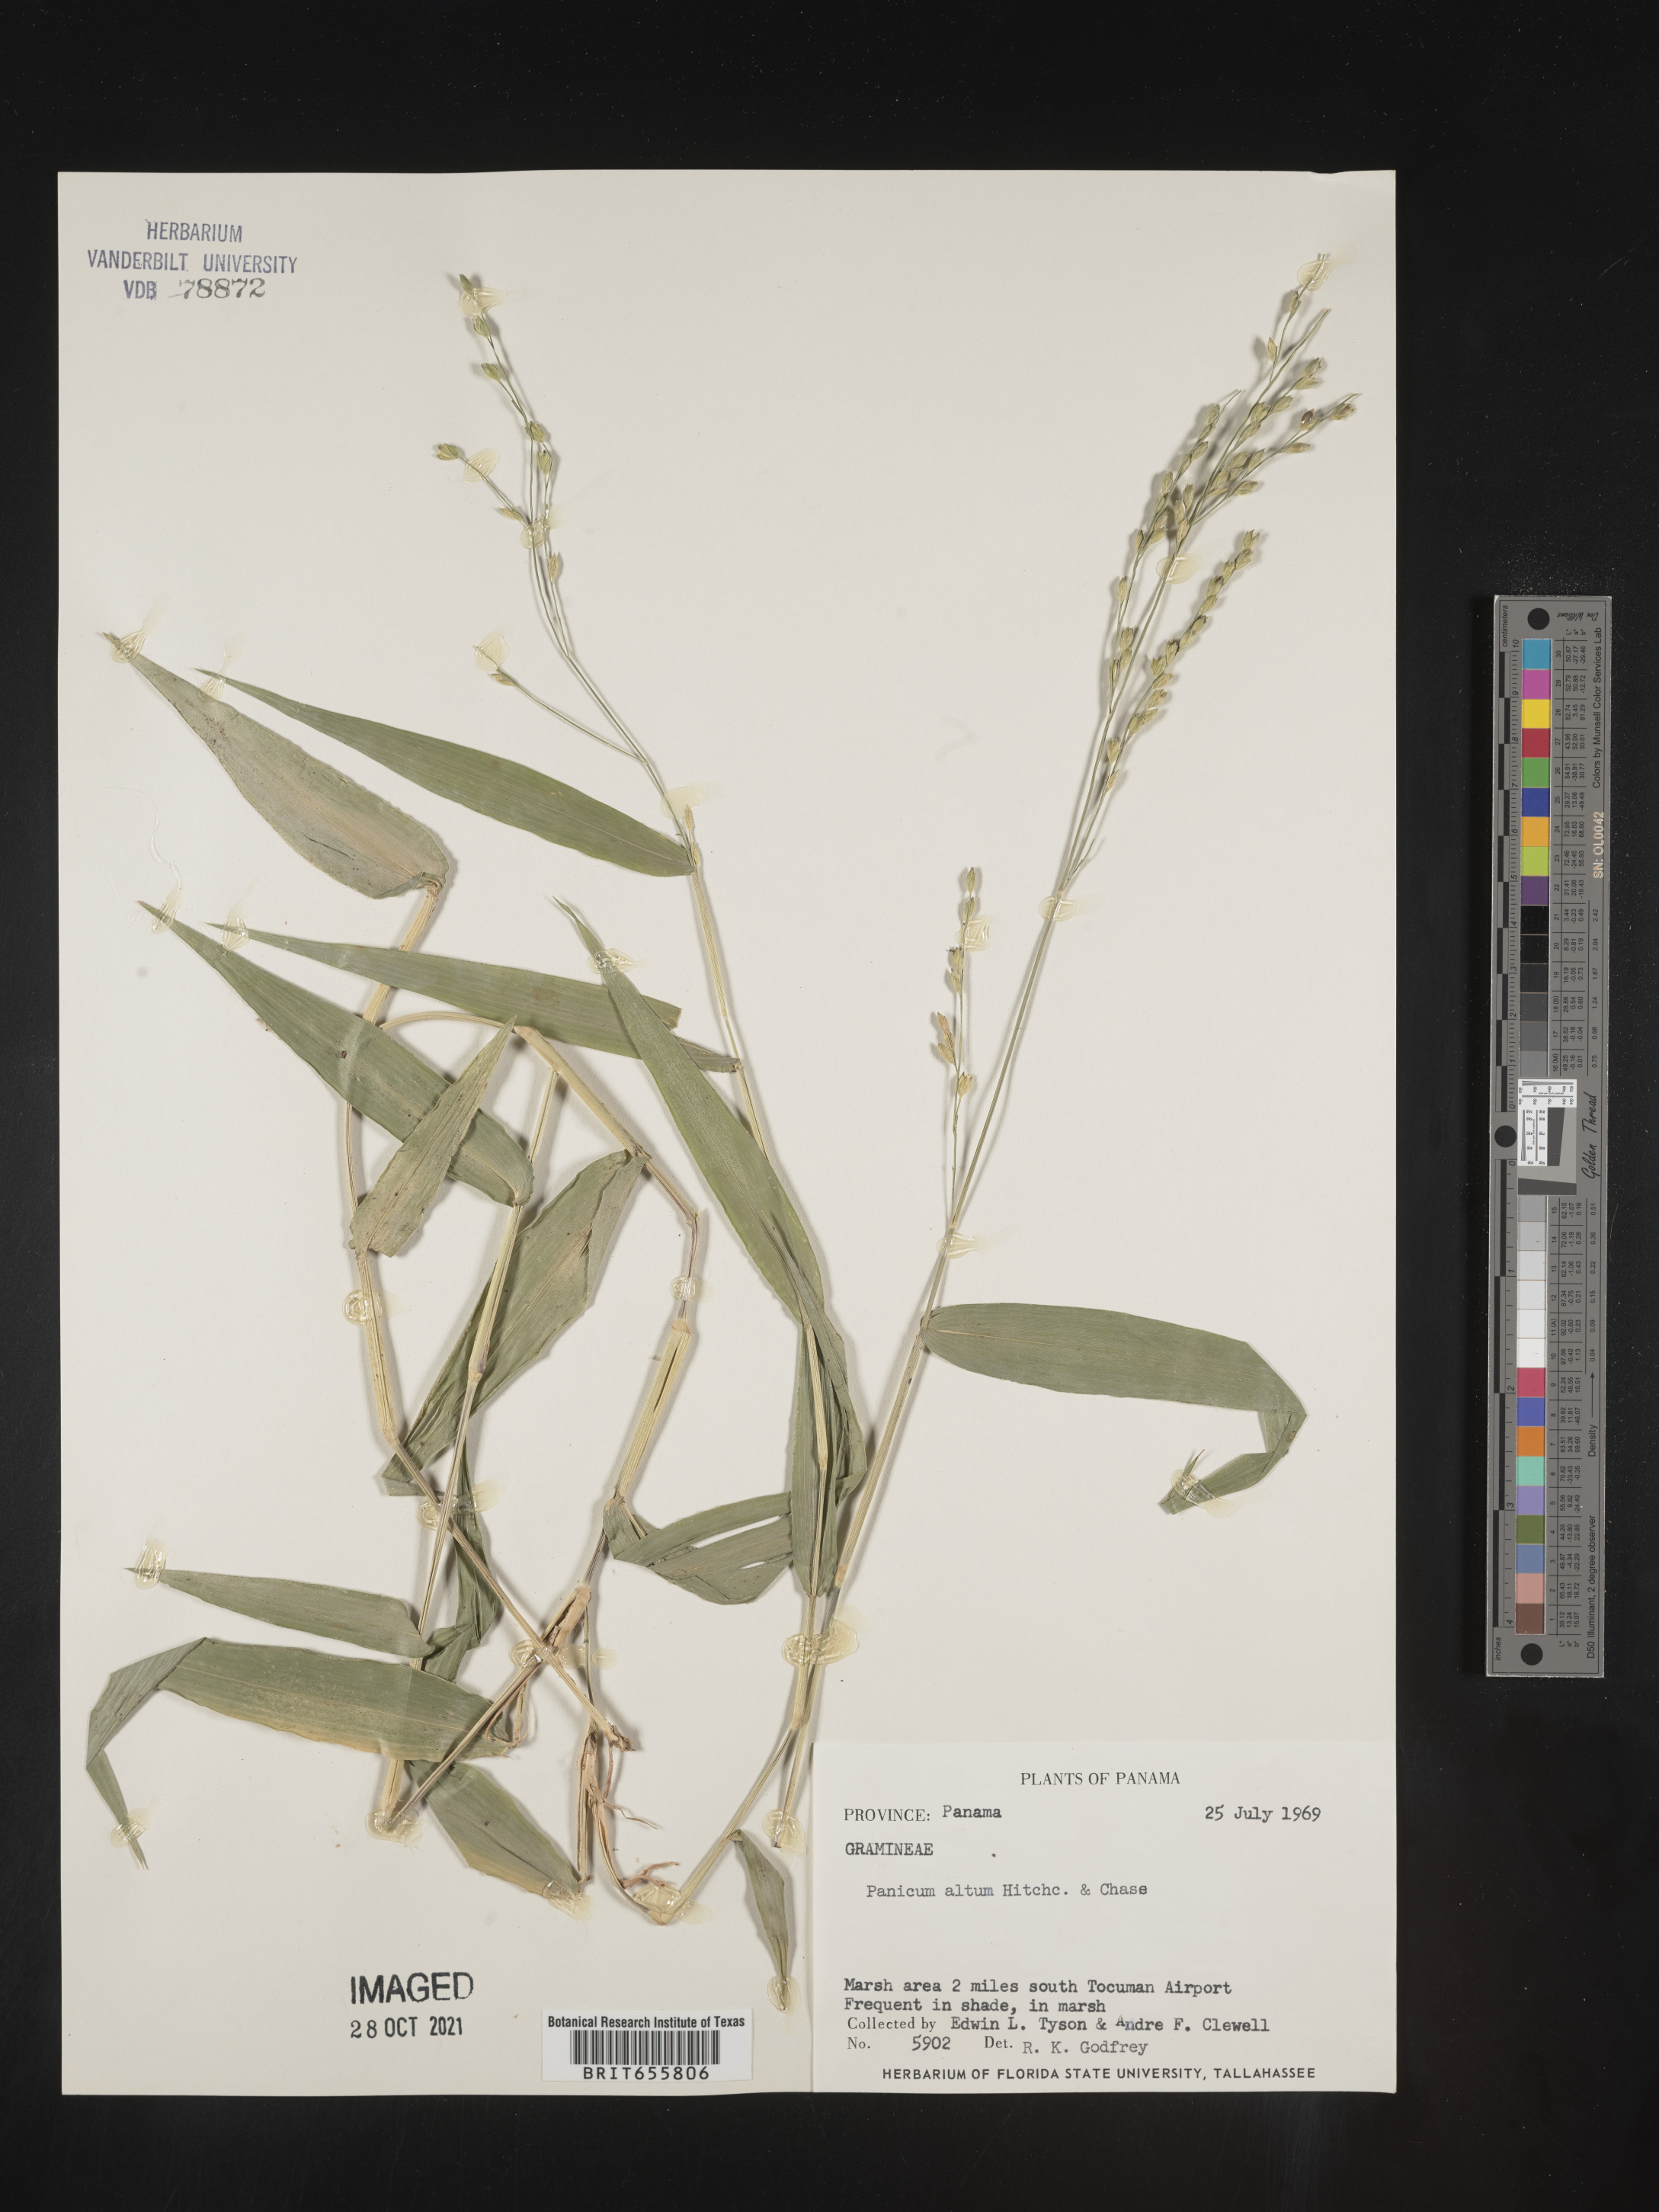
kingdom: Plantae
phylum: Tracheophyta
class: Liliopsida
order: Poales
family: Poaceae
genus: Panicum
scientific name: Panicum
